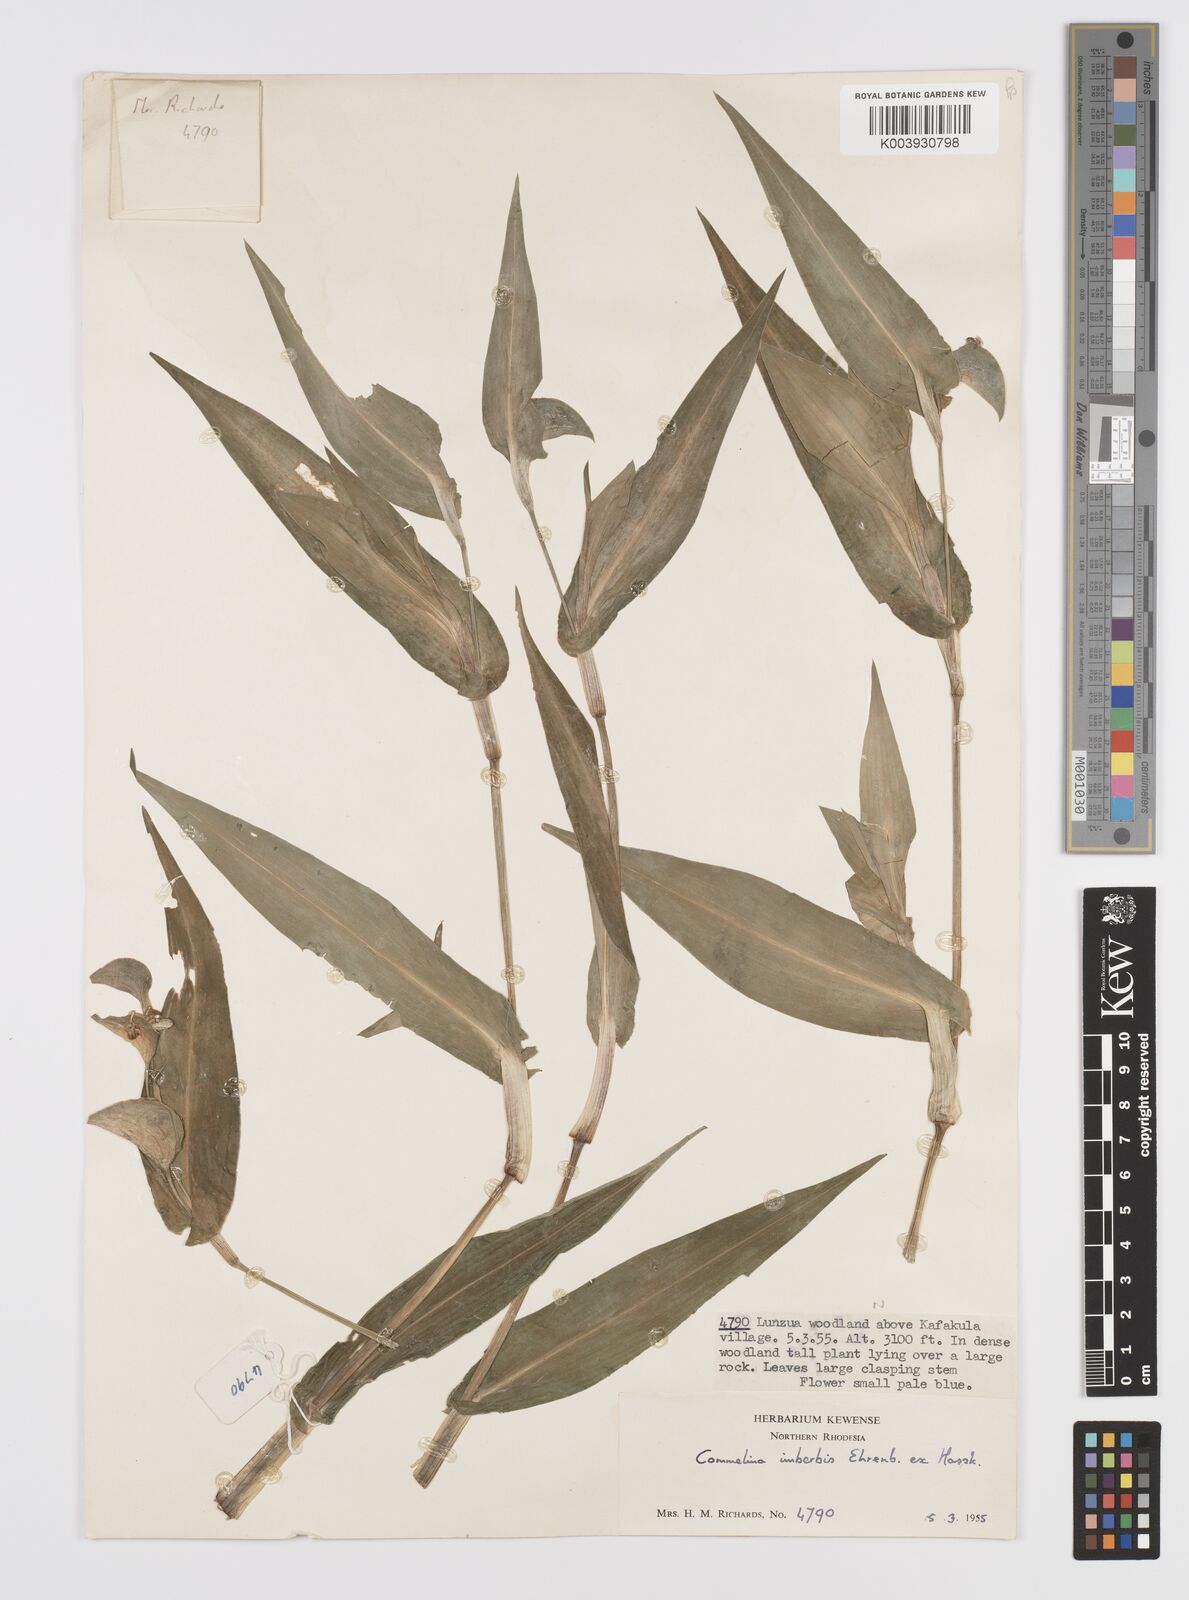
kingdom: Plantae
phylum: Tracheophyta
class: Liliopsida
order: Commelinales
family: Commelinaceae
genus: Commelina
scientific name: Commelina imberbis
